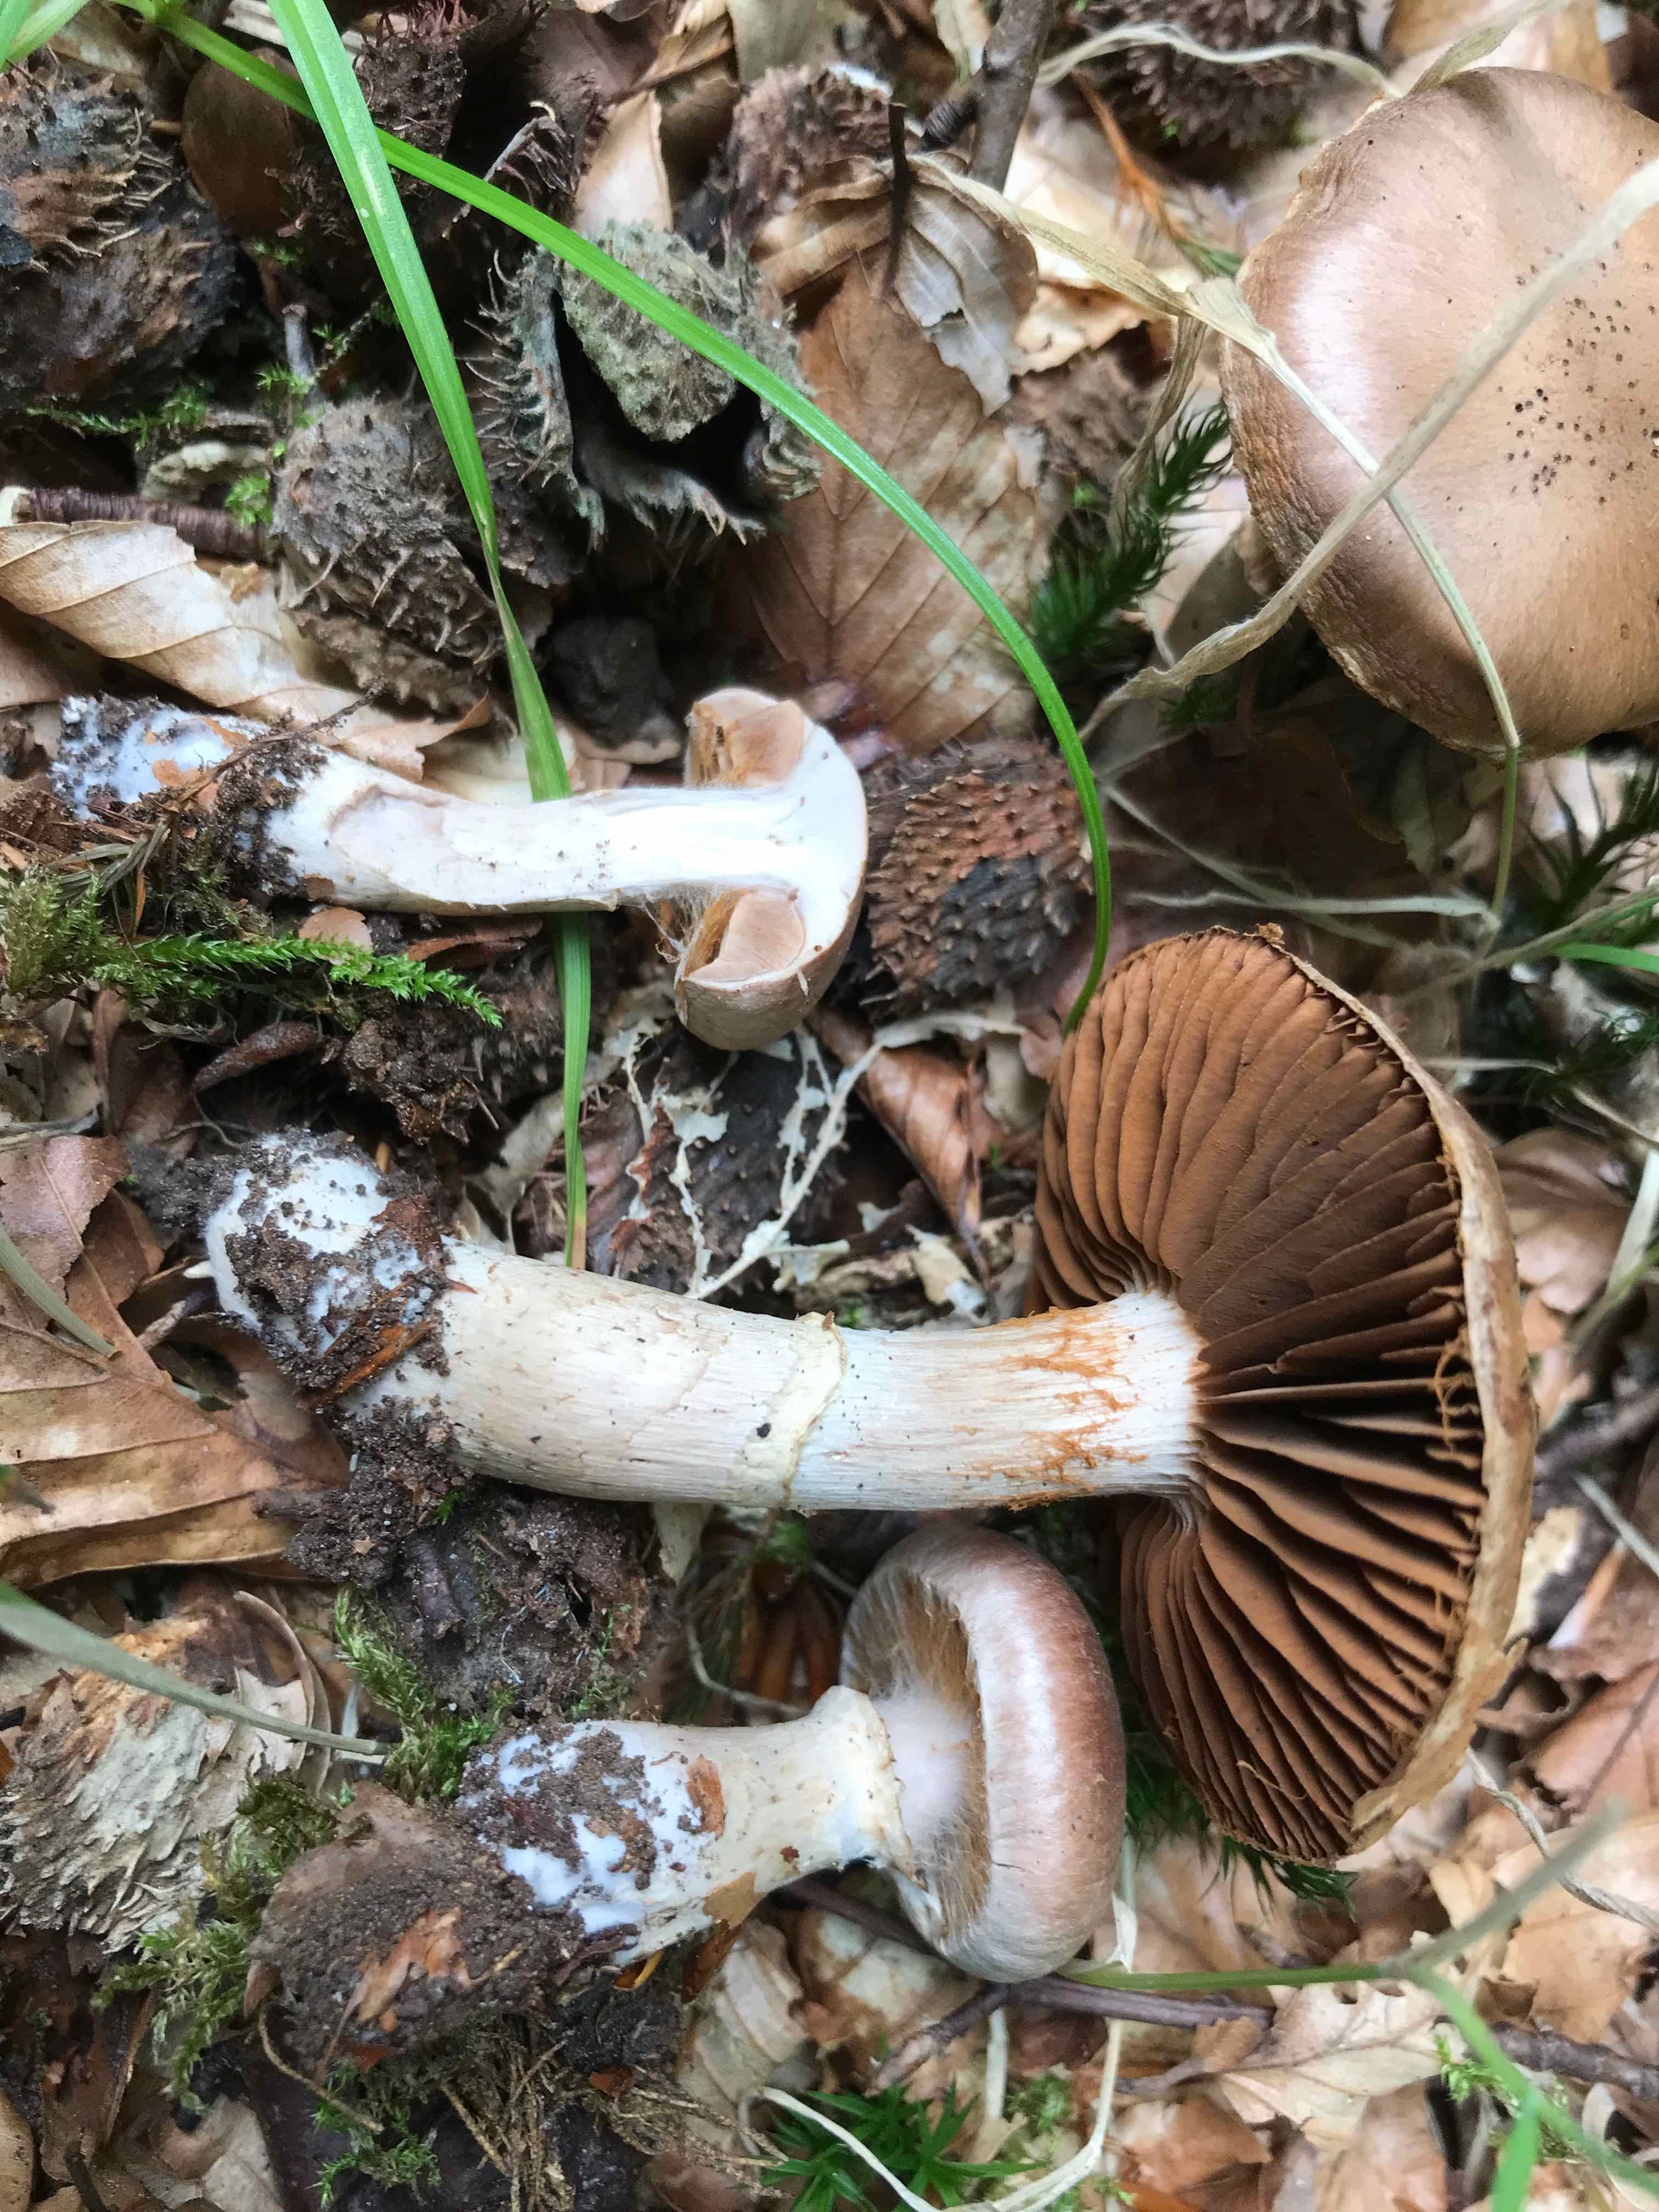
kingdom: Fungi
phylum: Basidiomycota
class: Agaricomycetes
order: Agaricales
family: Cortinariaceae
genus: Cortinarius
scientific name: Cortinarius torvus
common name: champignonagtig slørhat
